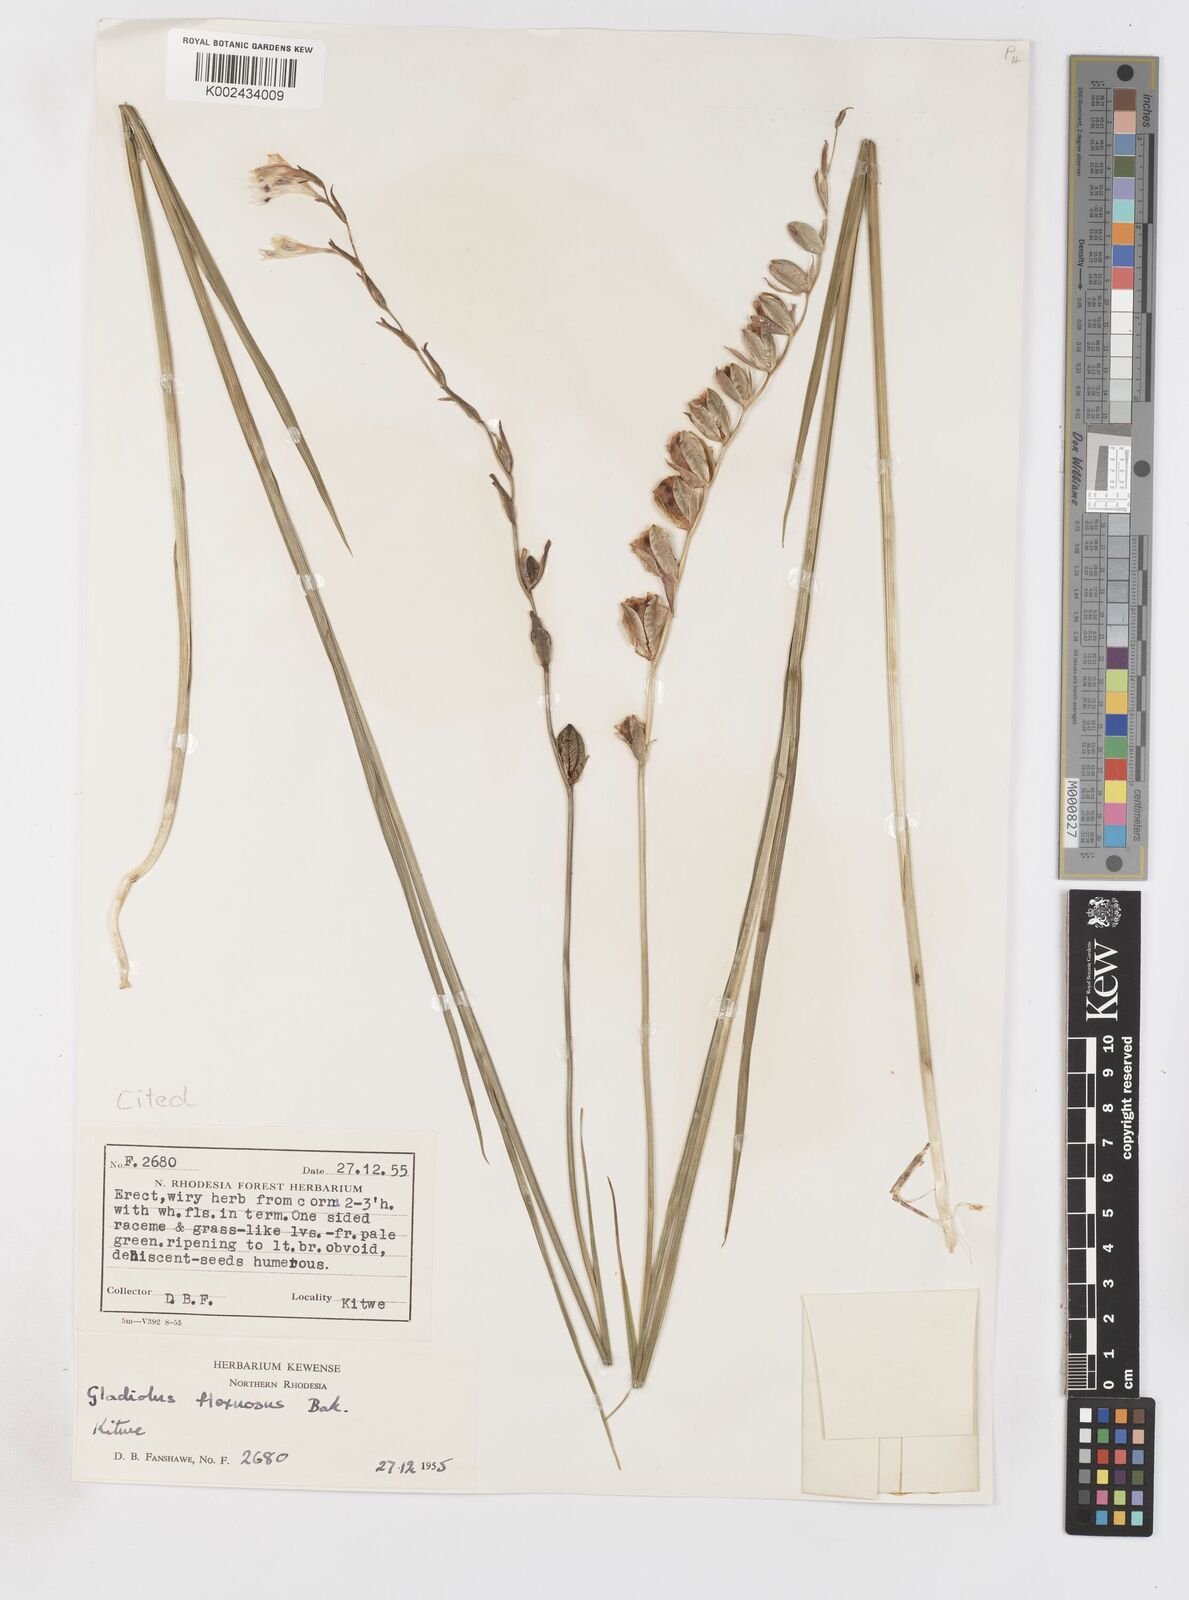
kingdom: Plantae
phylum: Tracheophyta
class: Liliopsida
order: Asparagales
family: Iridaceae
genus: Gladiolus
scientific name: Gladiolus atropurpureus
